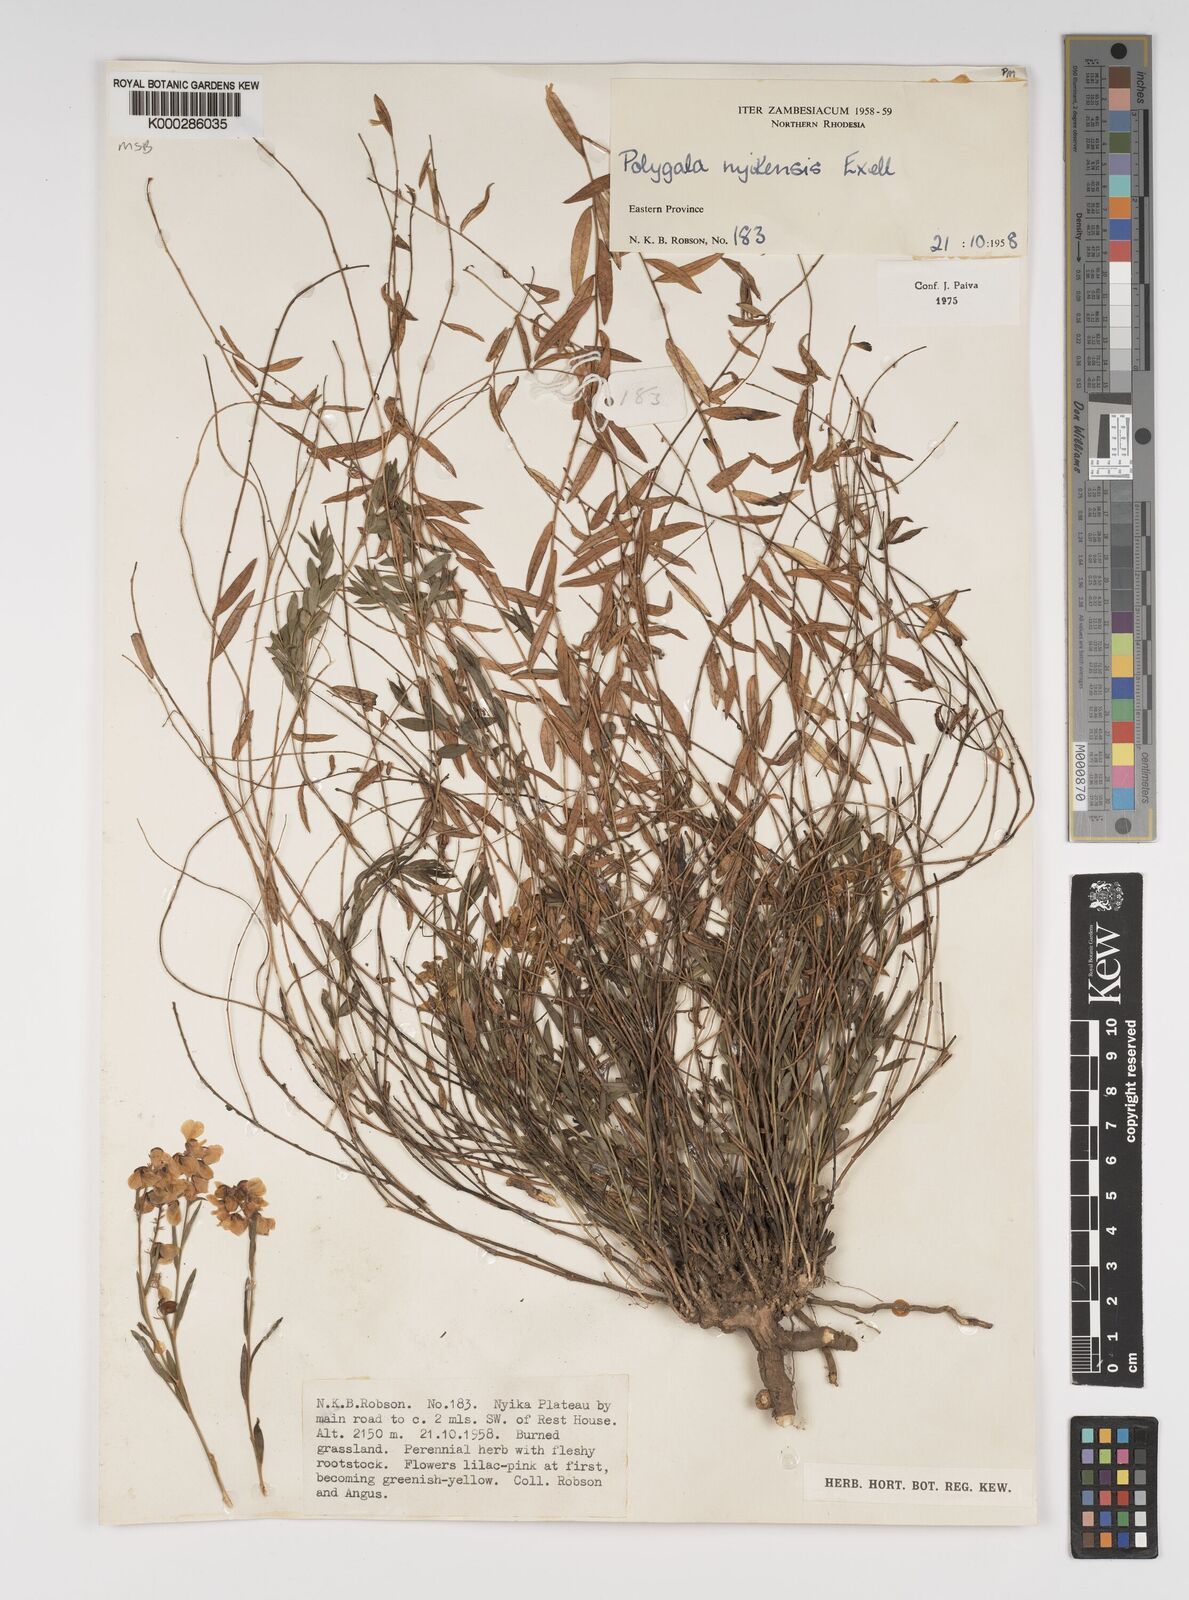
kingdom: Plantae
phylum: Tracheophyta
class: Magnoliopsida
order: Fabales
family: Polygalaceae
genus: Polygala
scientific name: Polygala nyikensis
